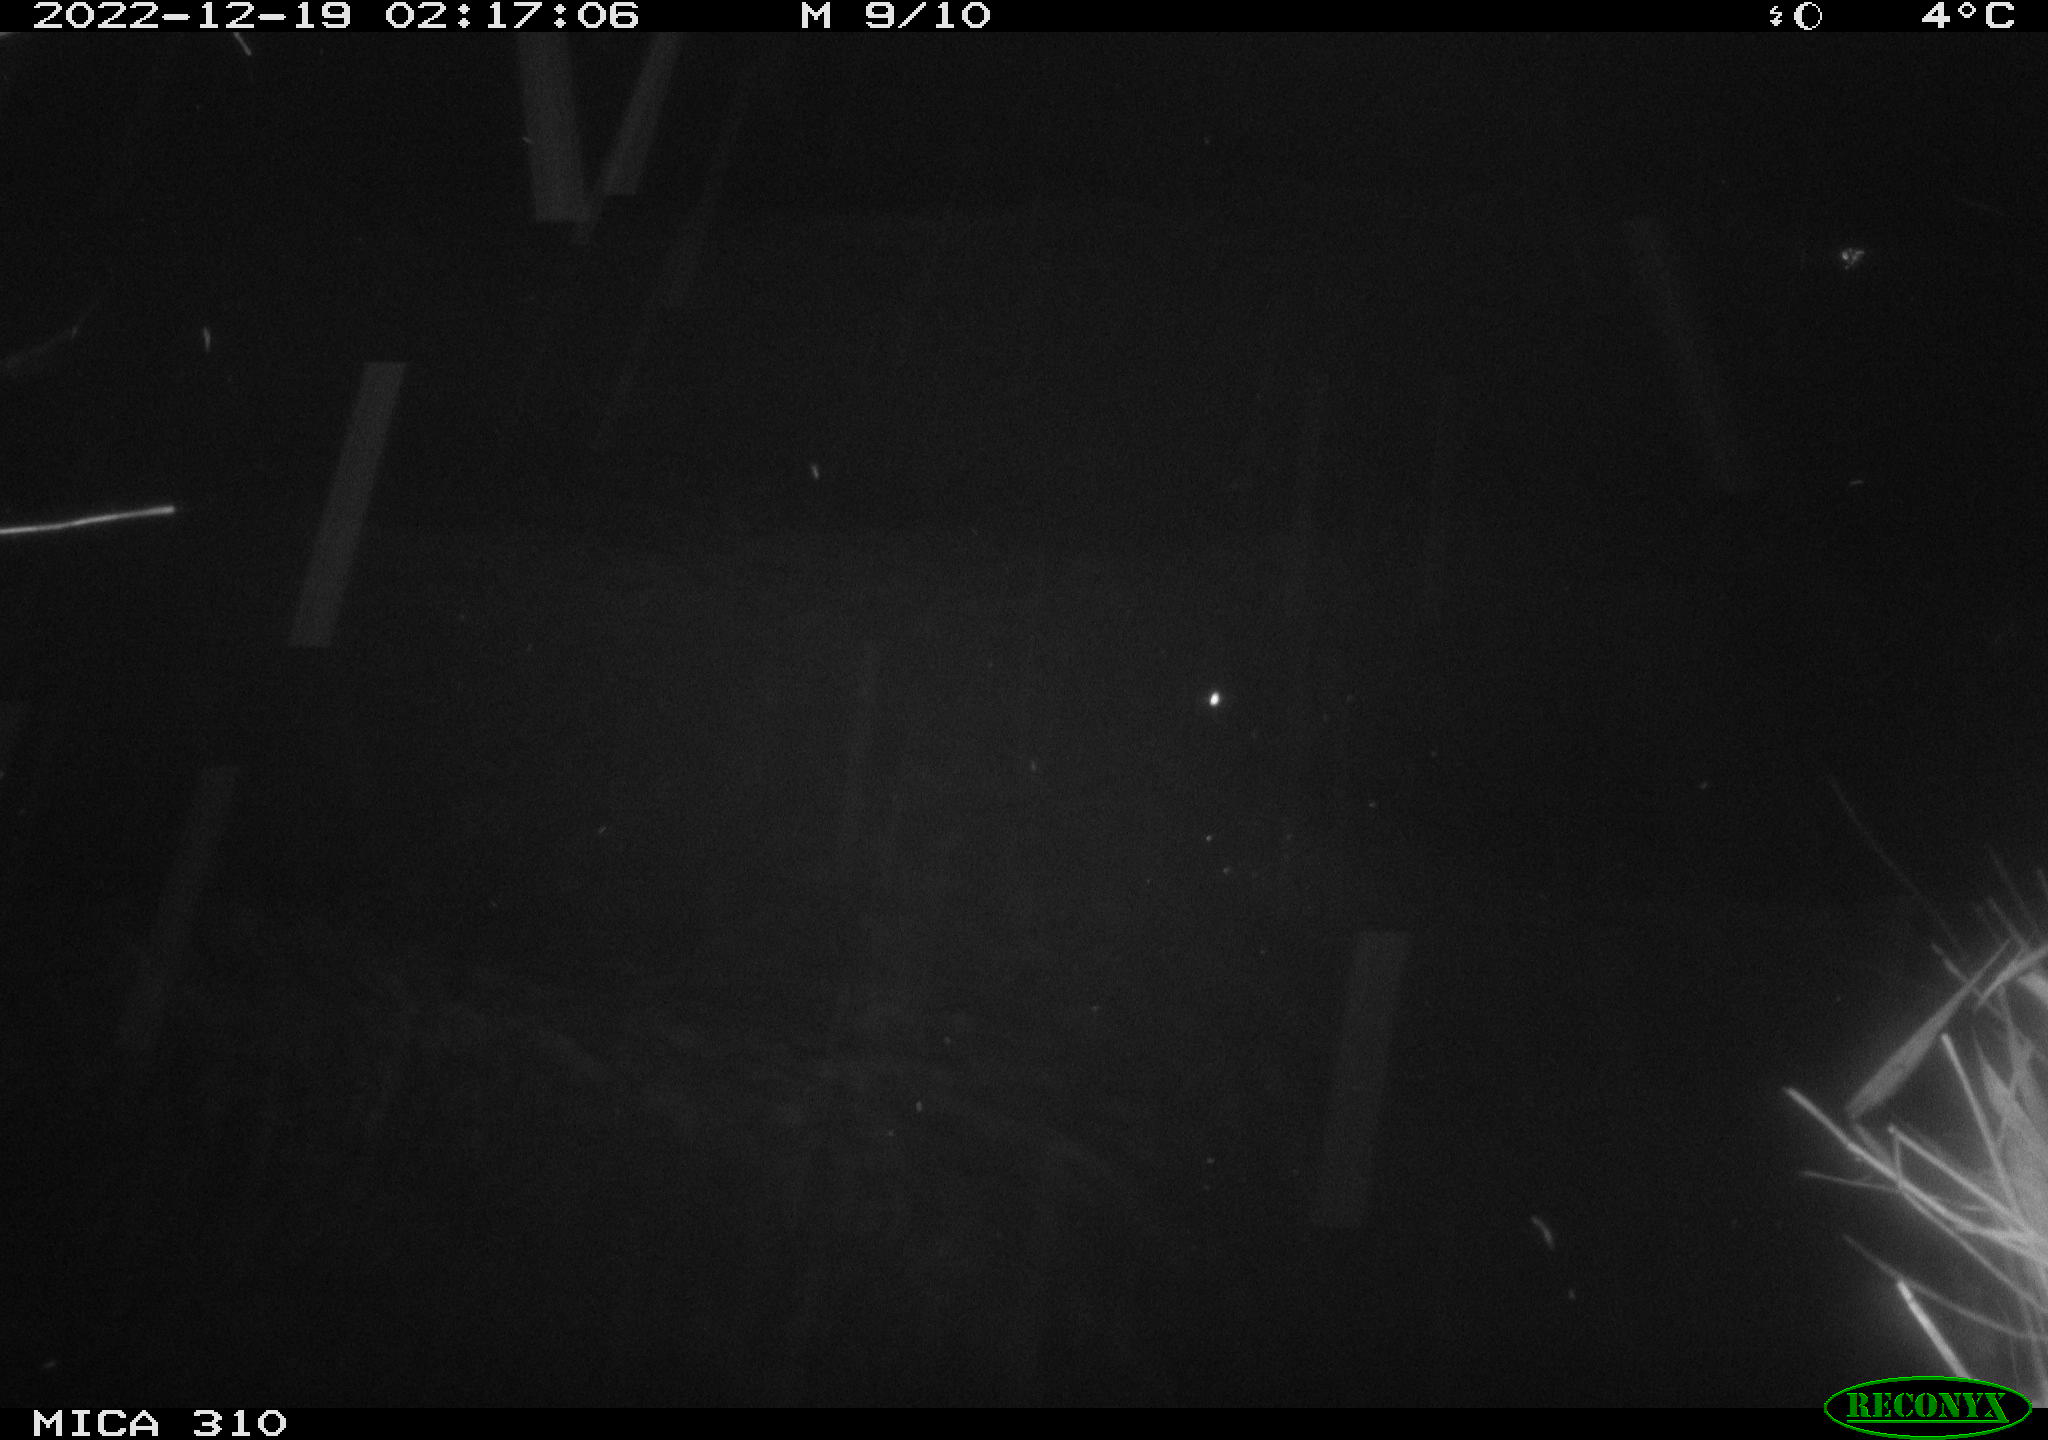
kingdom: Animalia
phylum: Chordata
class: Mammalia
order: Rodentia
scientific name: Rodentia
